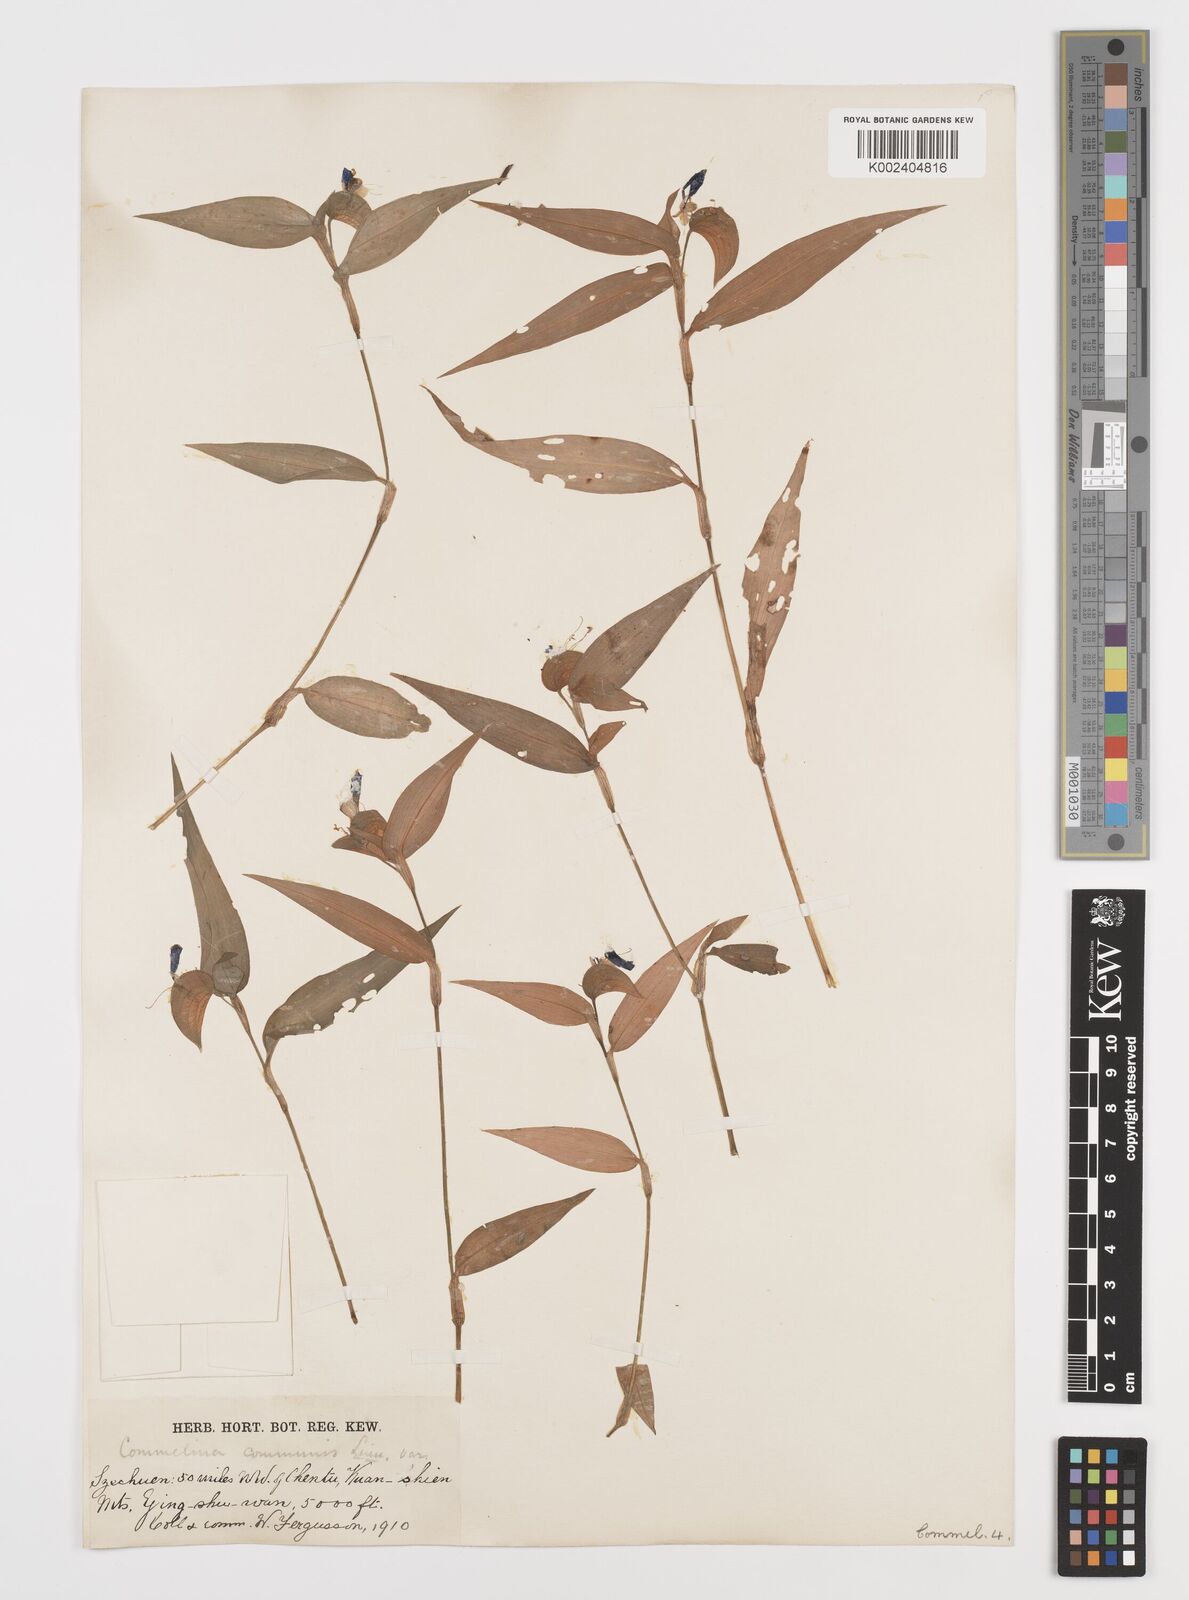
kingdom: Plantae
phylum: Tracheophyta
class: Liliopsida
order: Commelinales
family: Commelinaceae
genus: Commelina
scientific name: Commelina communis
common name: Asiatic dayflower
